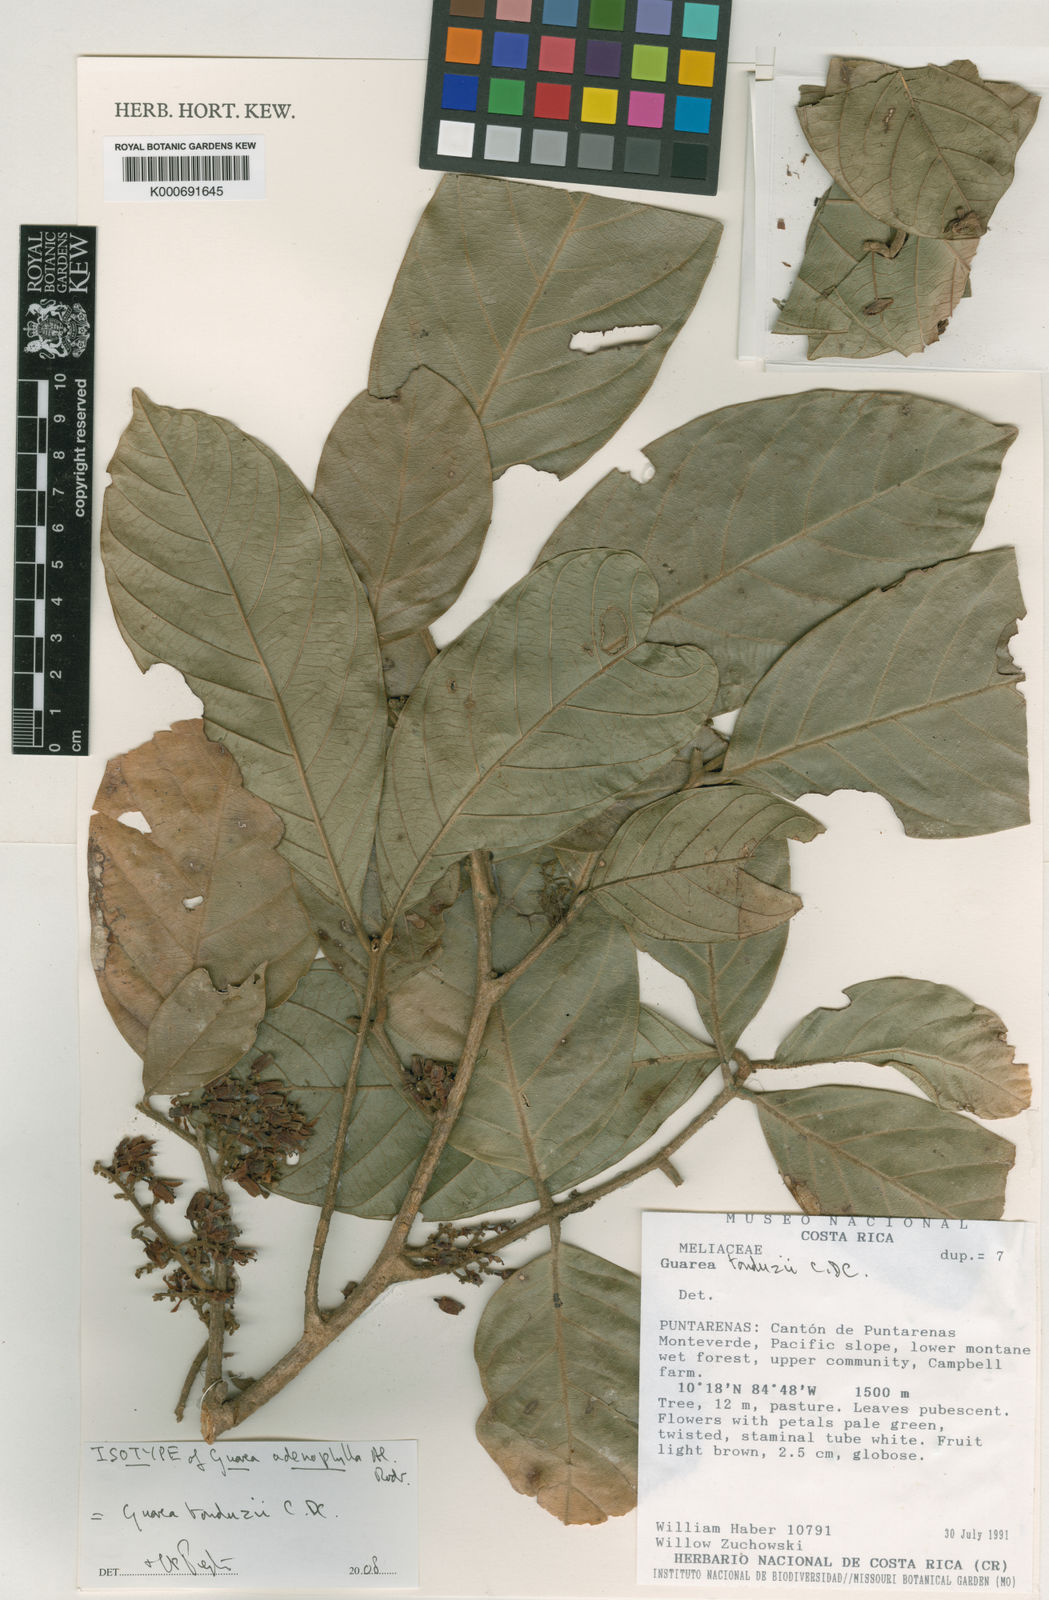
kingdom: Plantae
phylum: Tracheophyta
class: Magnoliopsida
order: Sapindales
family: Meliaceae
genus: Guarea
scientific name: Guarea tonduzii
